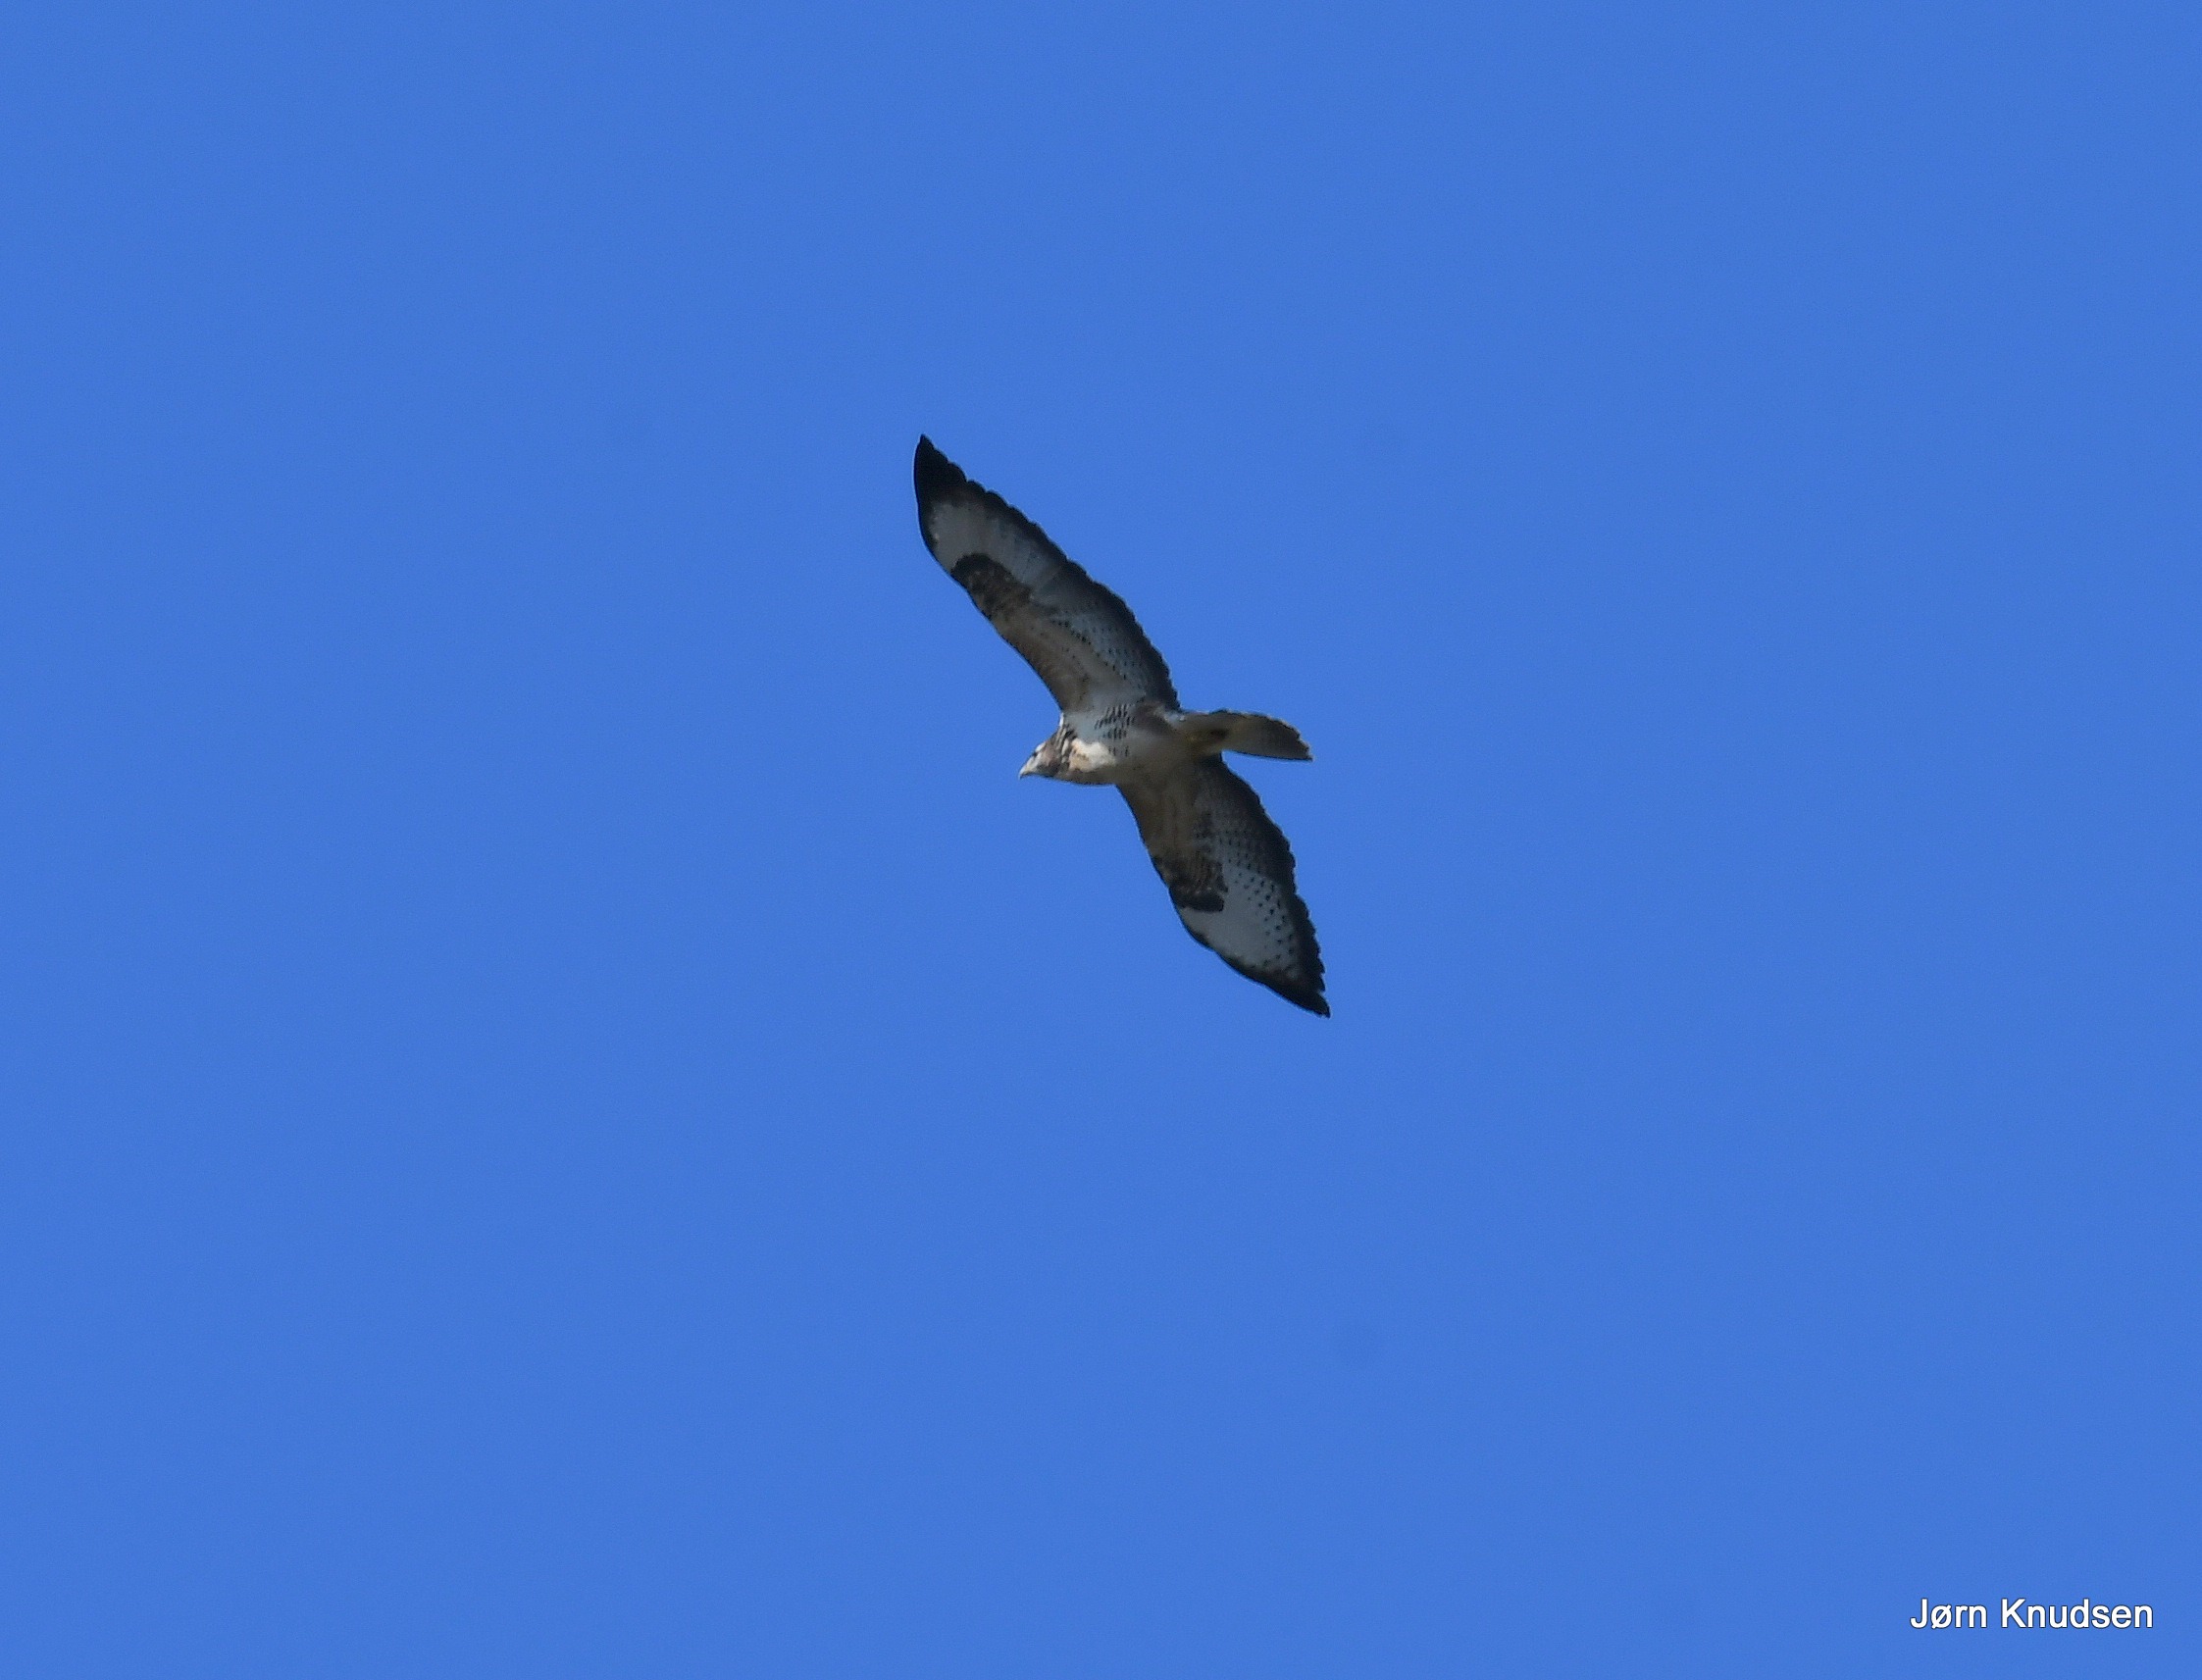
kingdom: Animalia
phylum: Chordata
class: Aves
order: Accipitriformes
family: Accipitridae
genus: Buteo
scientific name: Buteo buteo
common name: Musvåge
